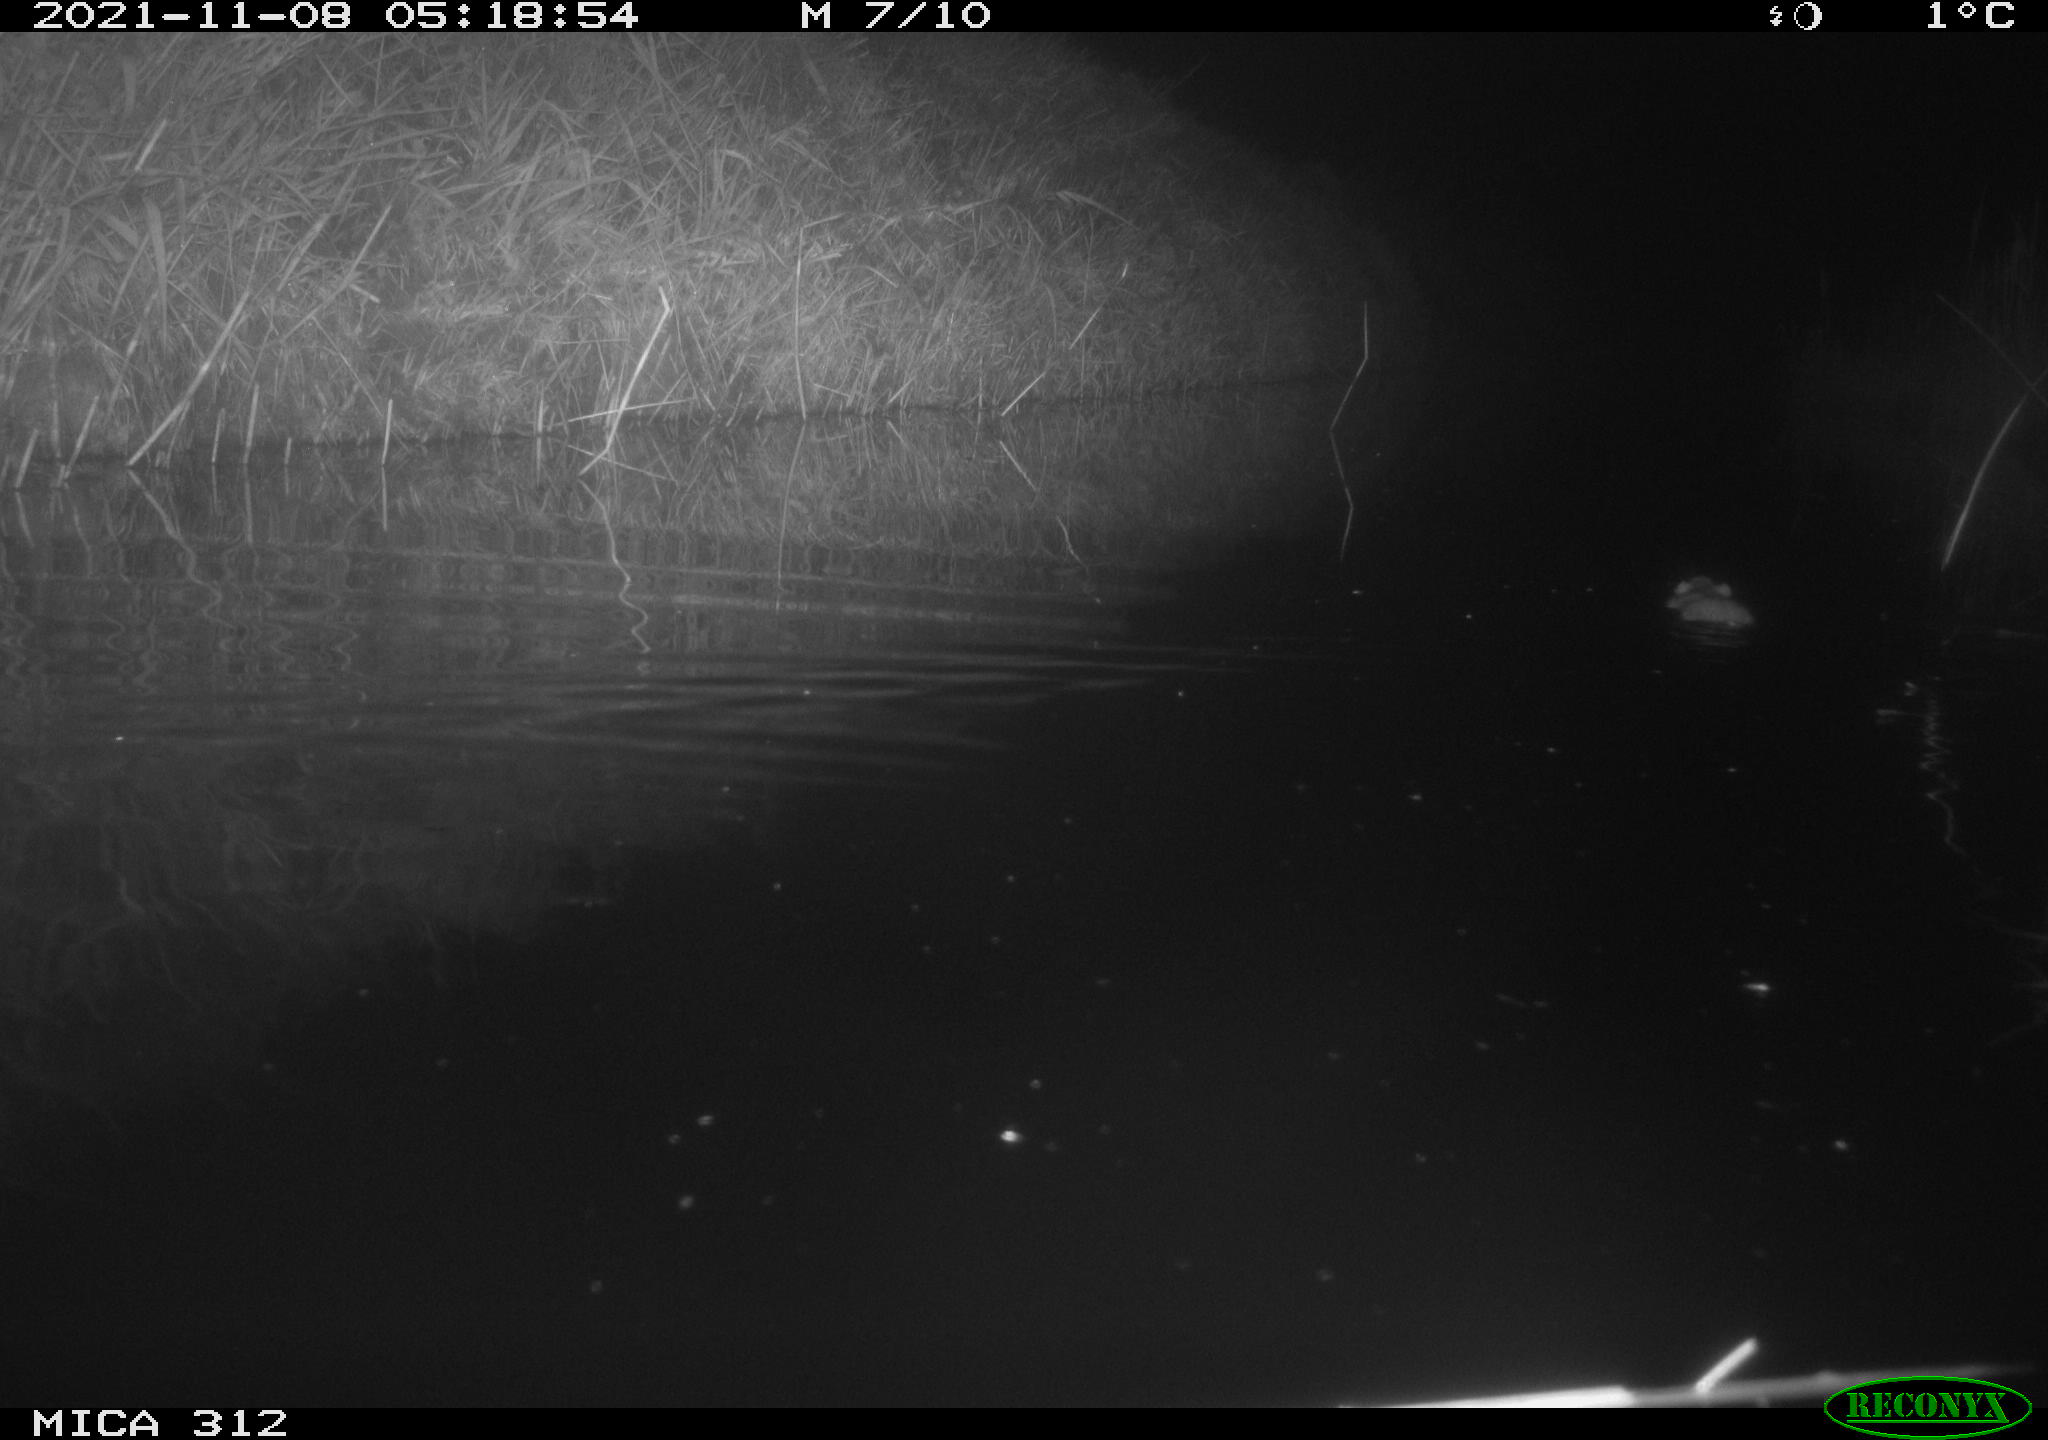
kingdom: Animalia
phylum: Chordata
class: Mammalia
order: Rodentia
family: Muridae
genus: Rattus
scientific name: Rattus norvegicus
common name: Brown rat
